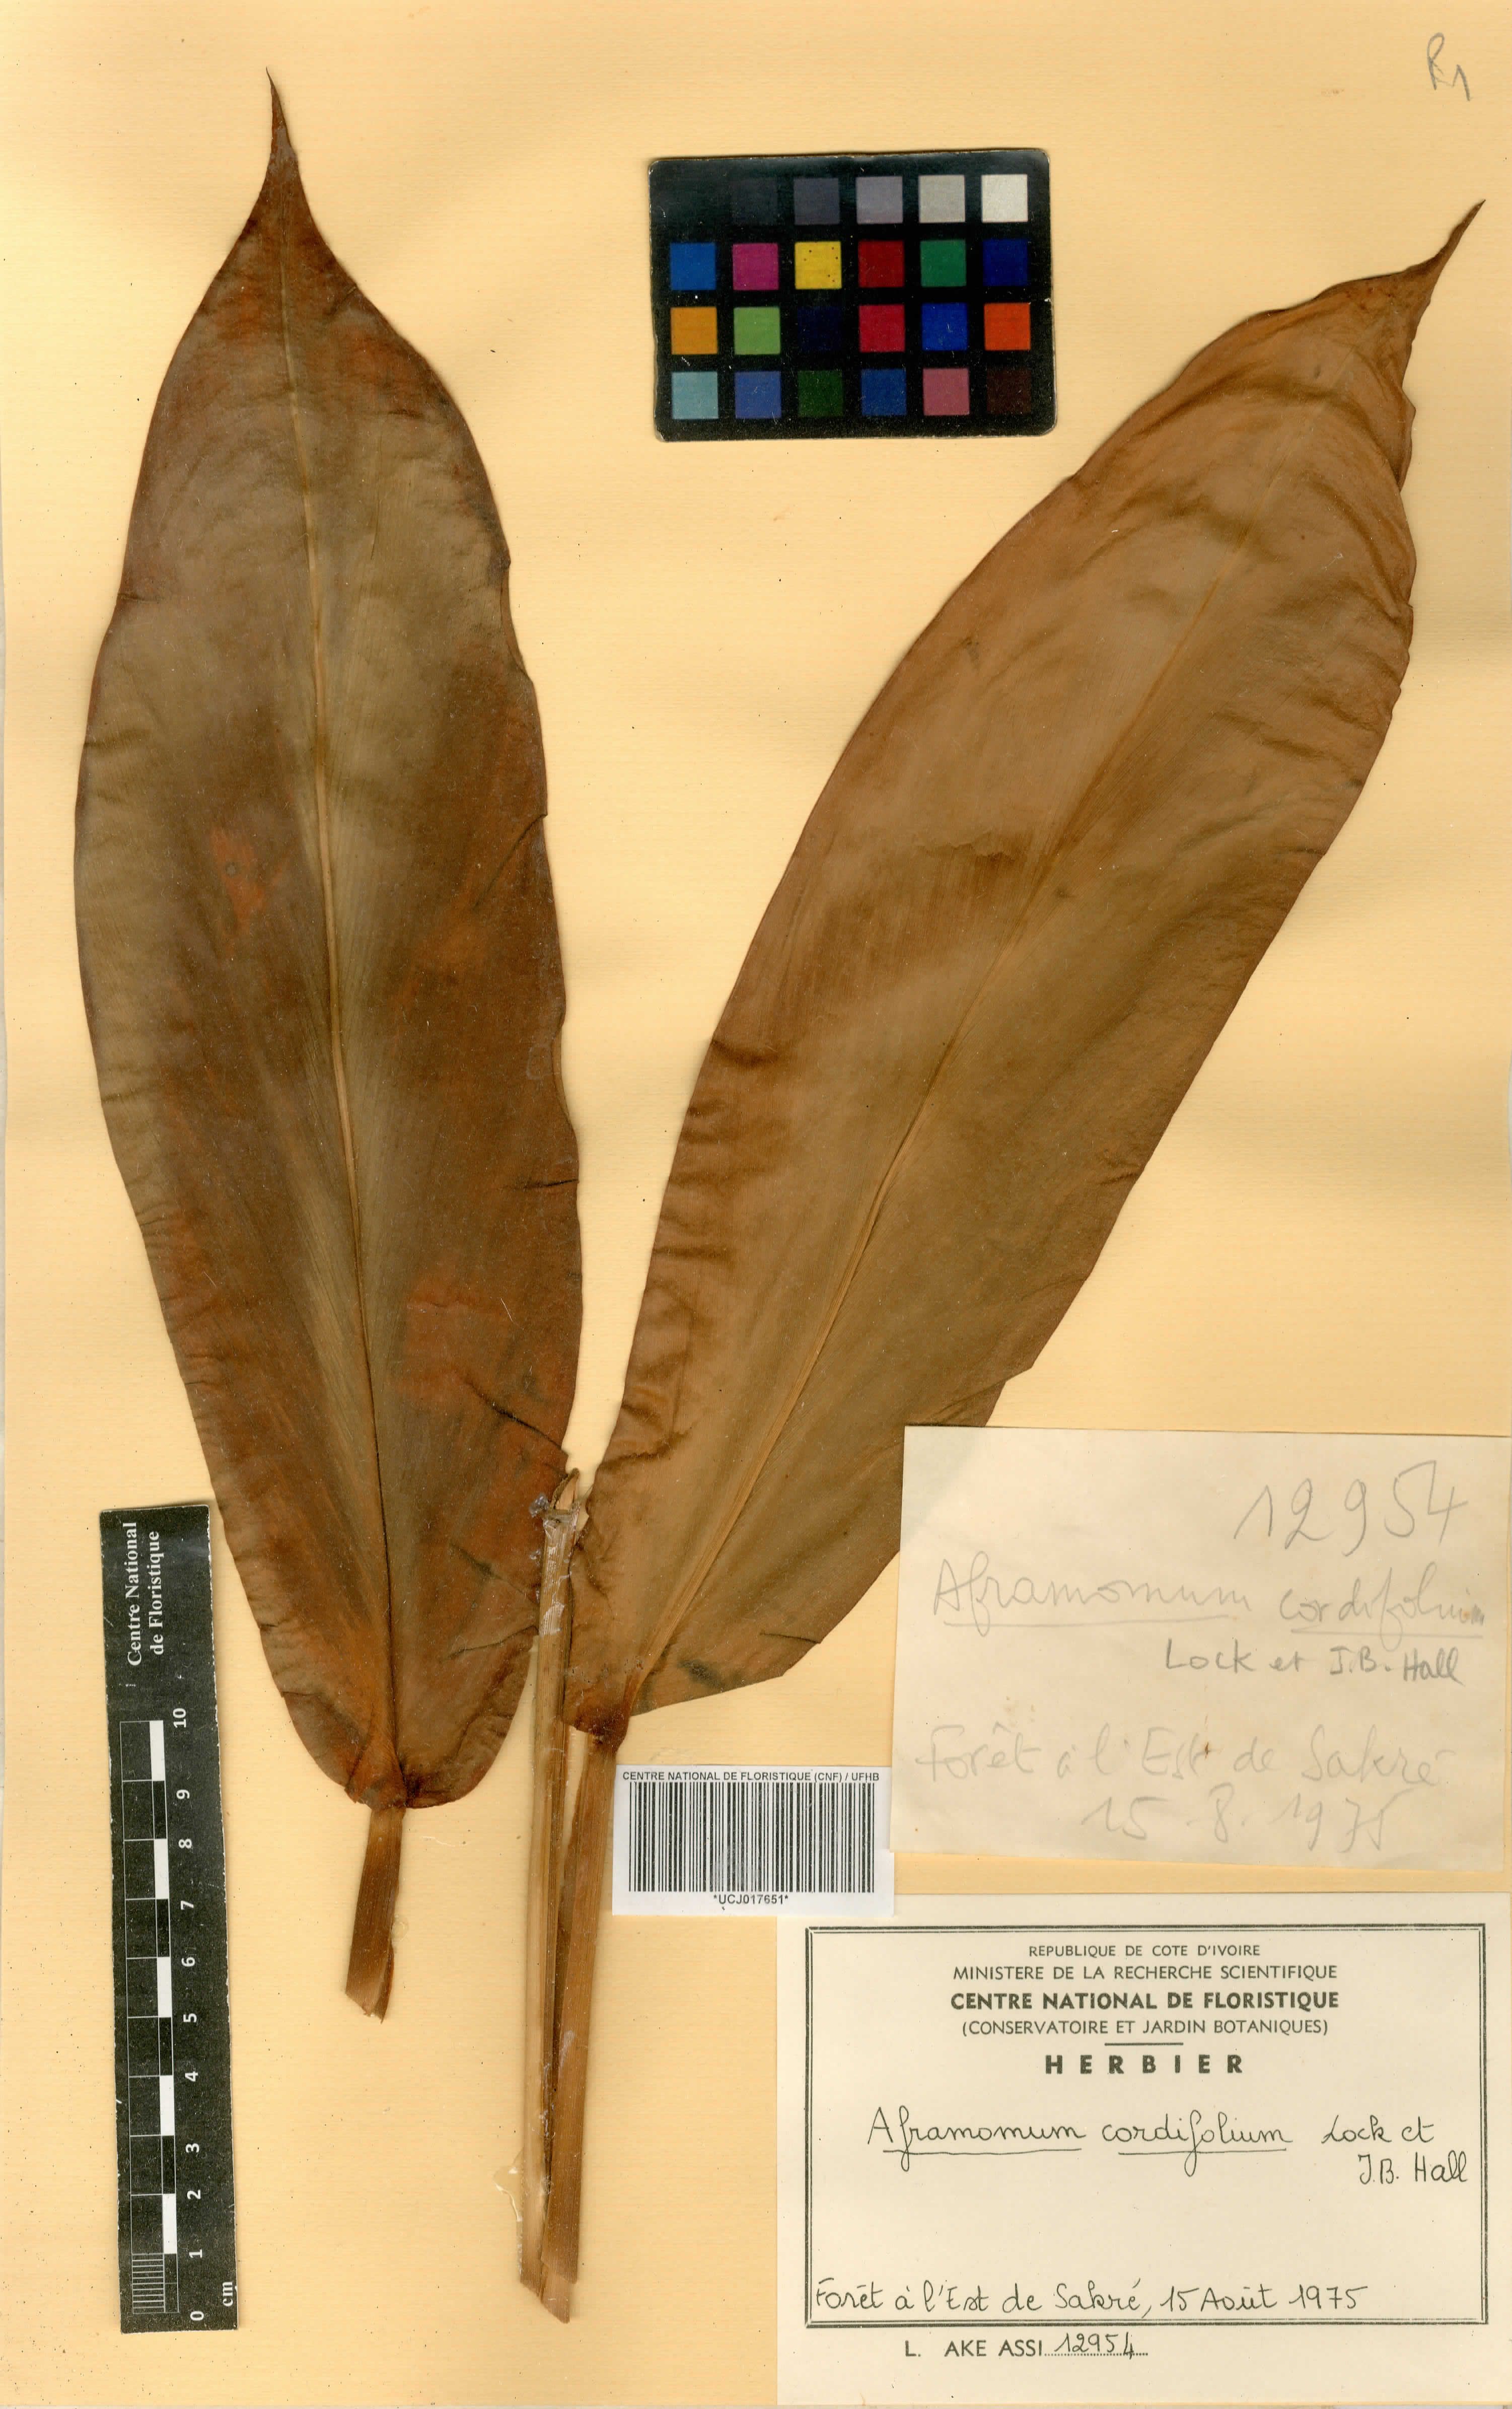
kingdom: Plantae
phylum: Tracheophyta
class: Liliopsida
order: Zingiberales
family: Zingiberaceae
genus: Aframomum
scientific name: Aframomum cordifolium
